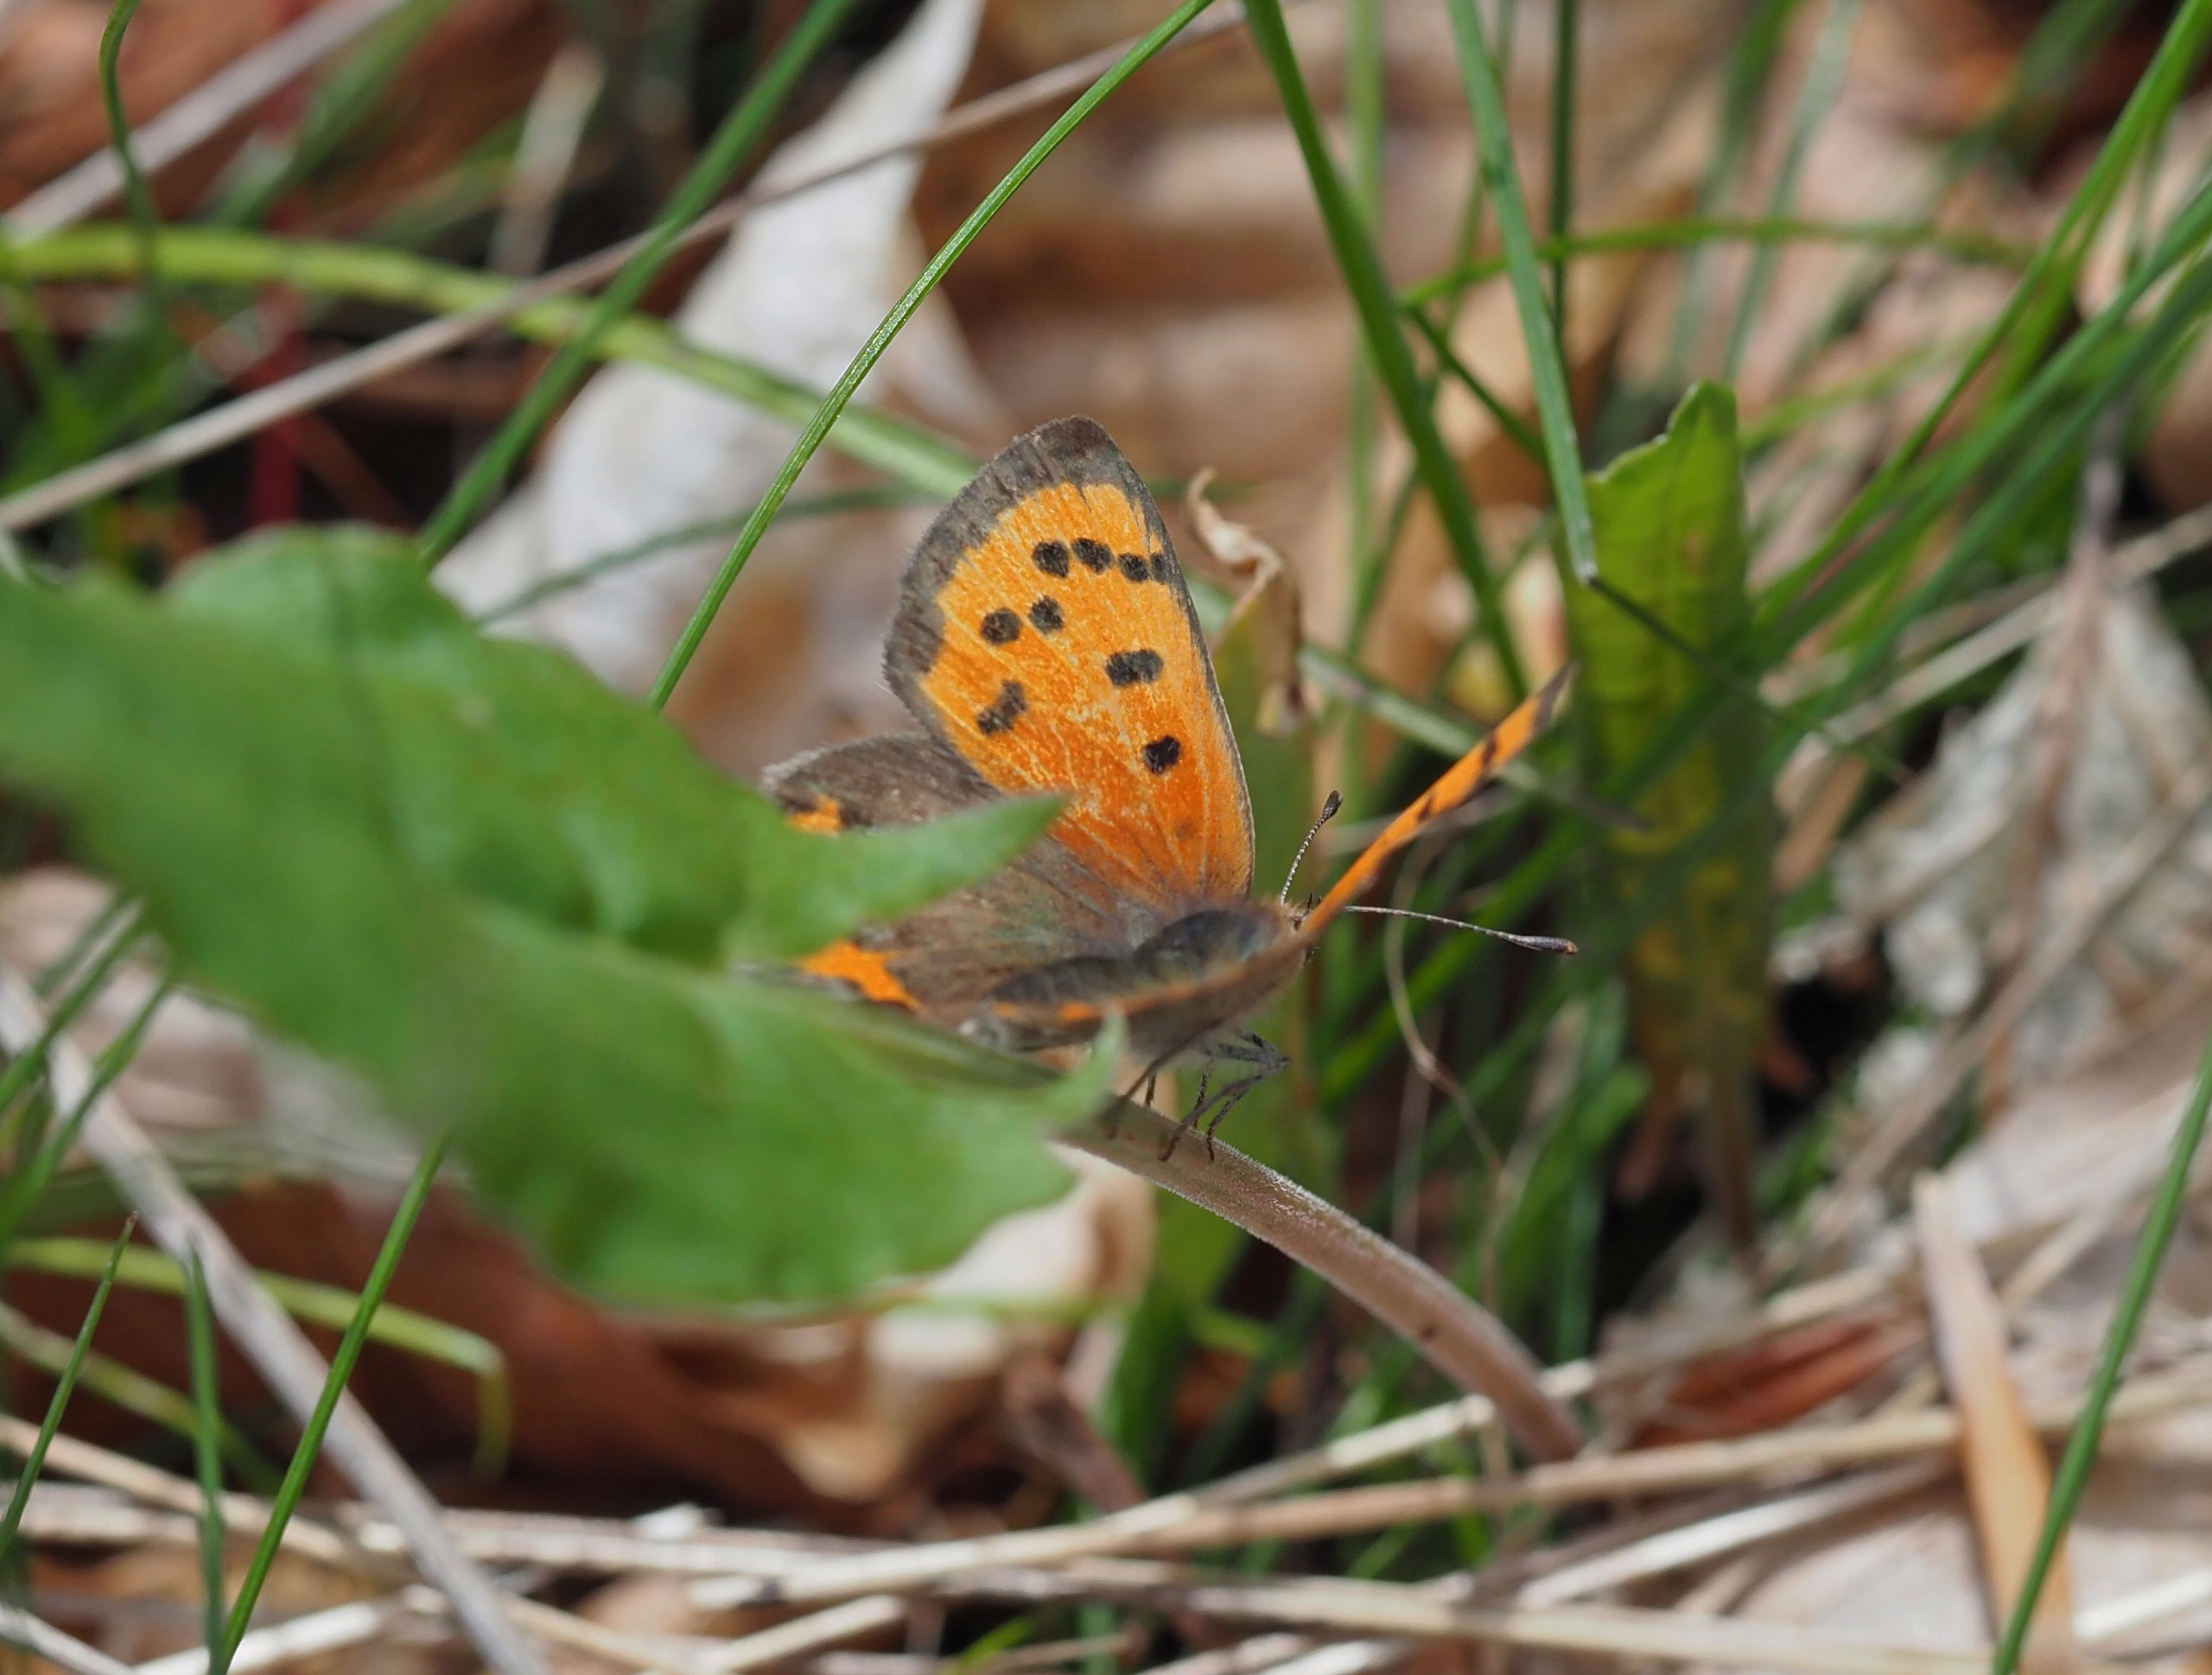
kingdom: Animalia
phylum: Arthropoda
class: Insecta
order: Lepidoptera
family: Lycaenidae
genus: Lycaena
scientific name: Lycaena phlaeas
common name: Lille ildfugl
